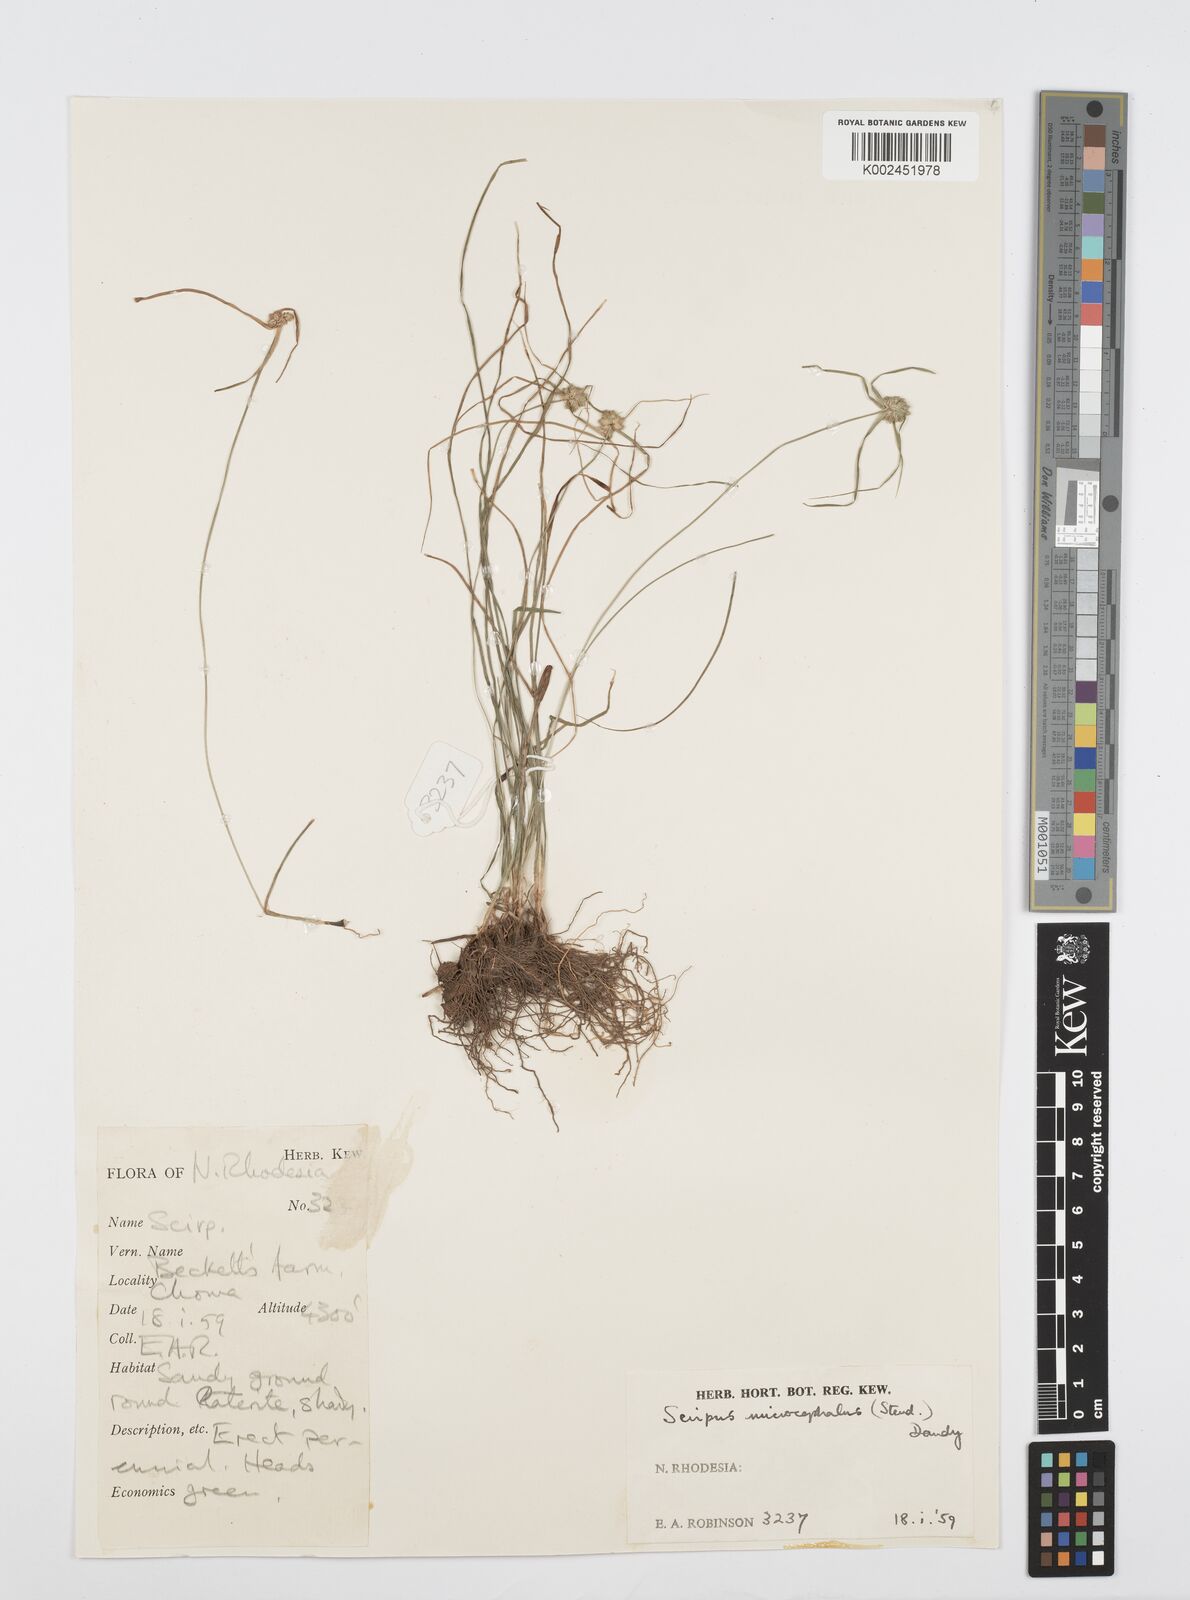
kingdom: Plantae
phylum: Tracheophyta
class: Liliopsida
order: Poales
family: Cyperaceae
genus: Cyperus
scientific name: Cyperus microcephalus
